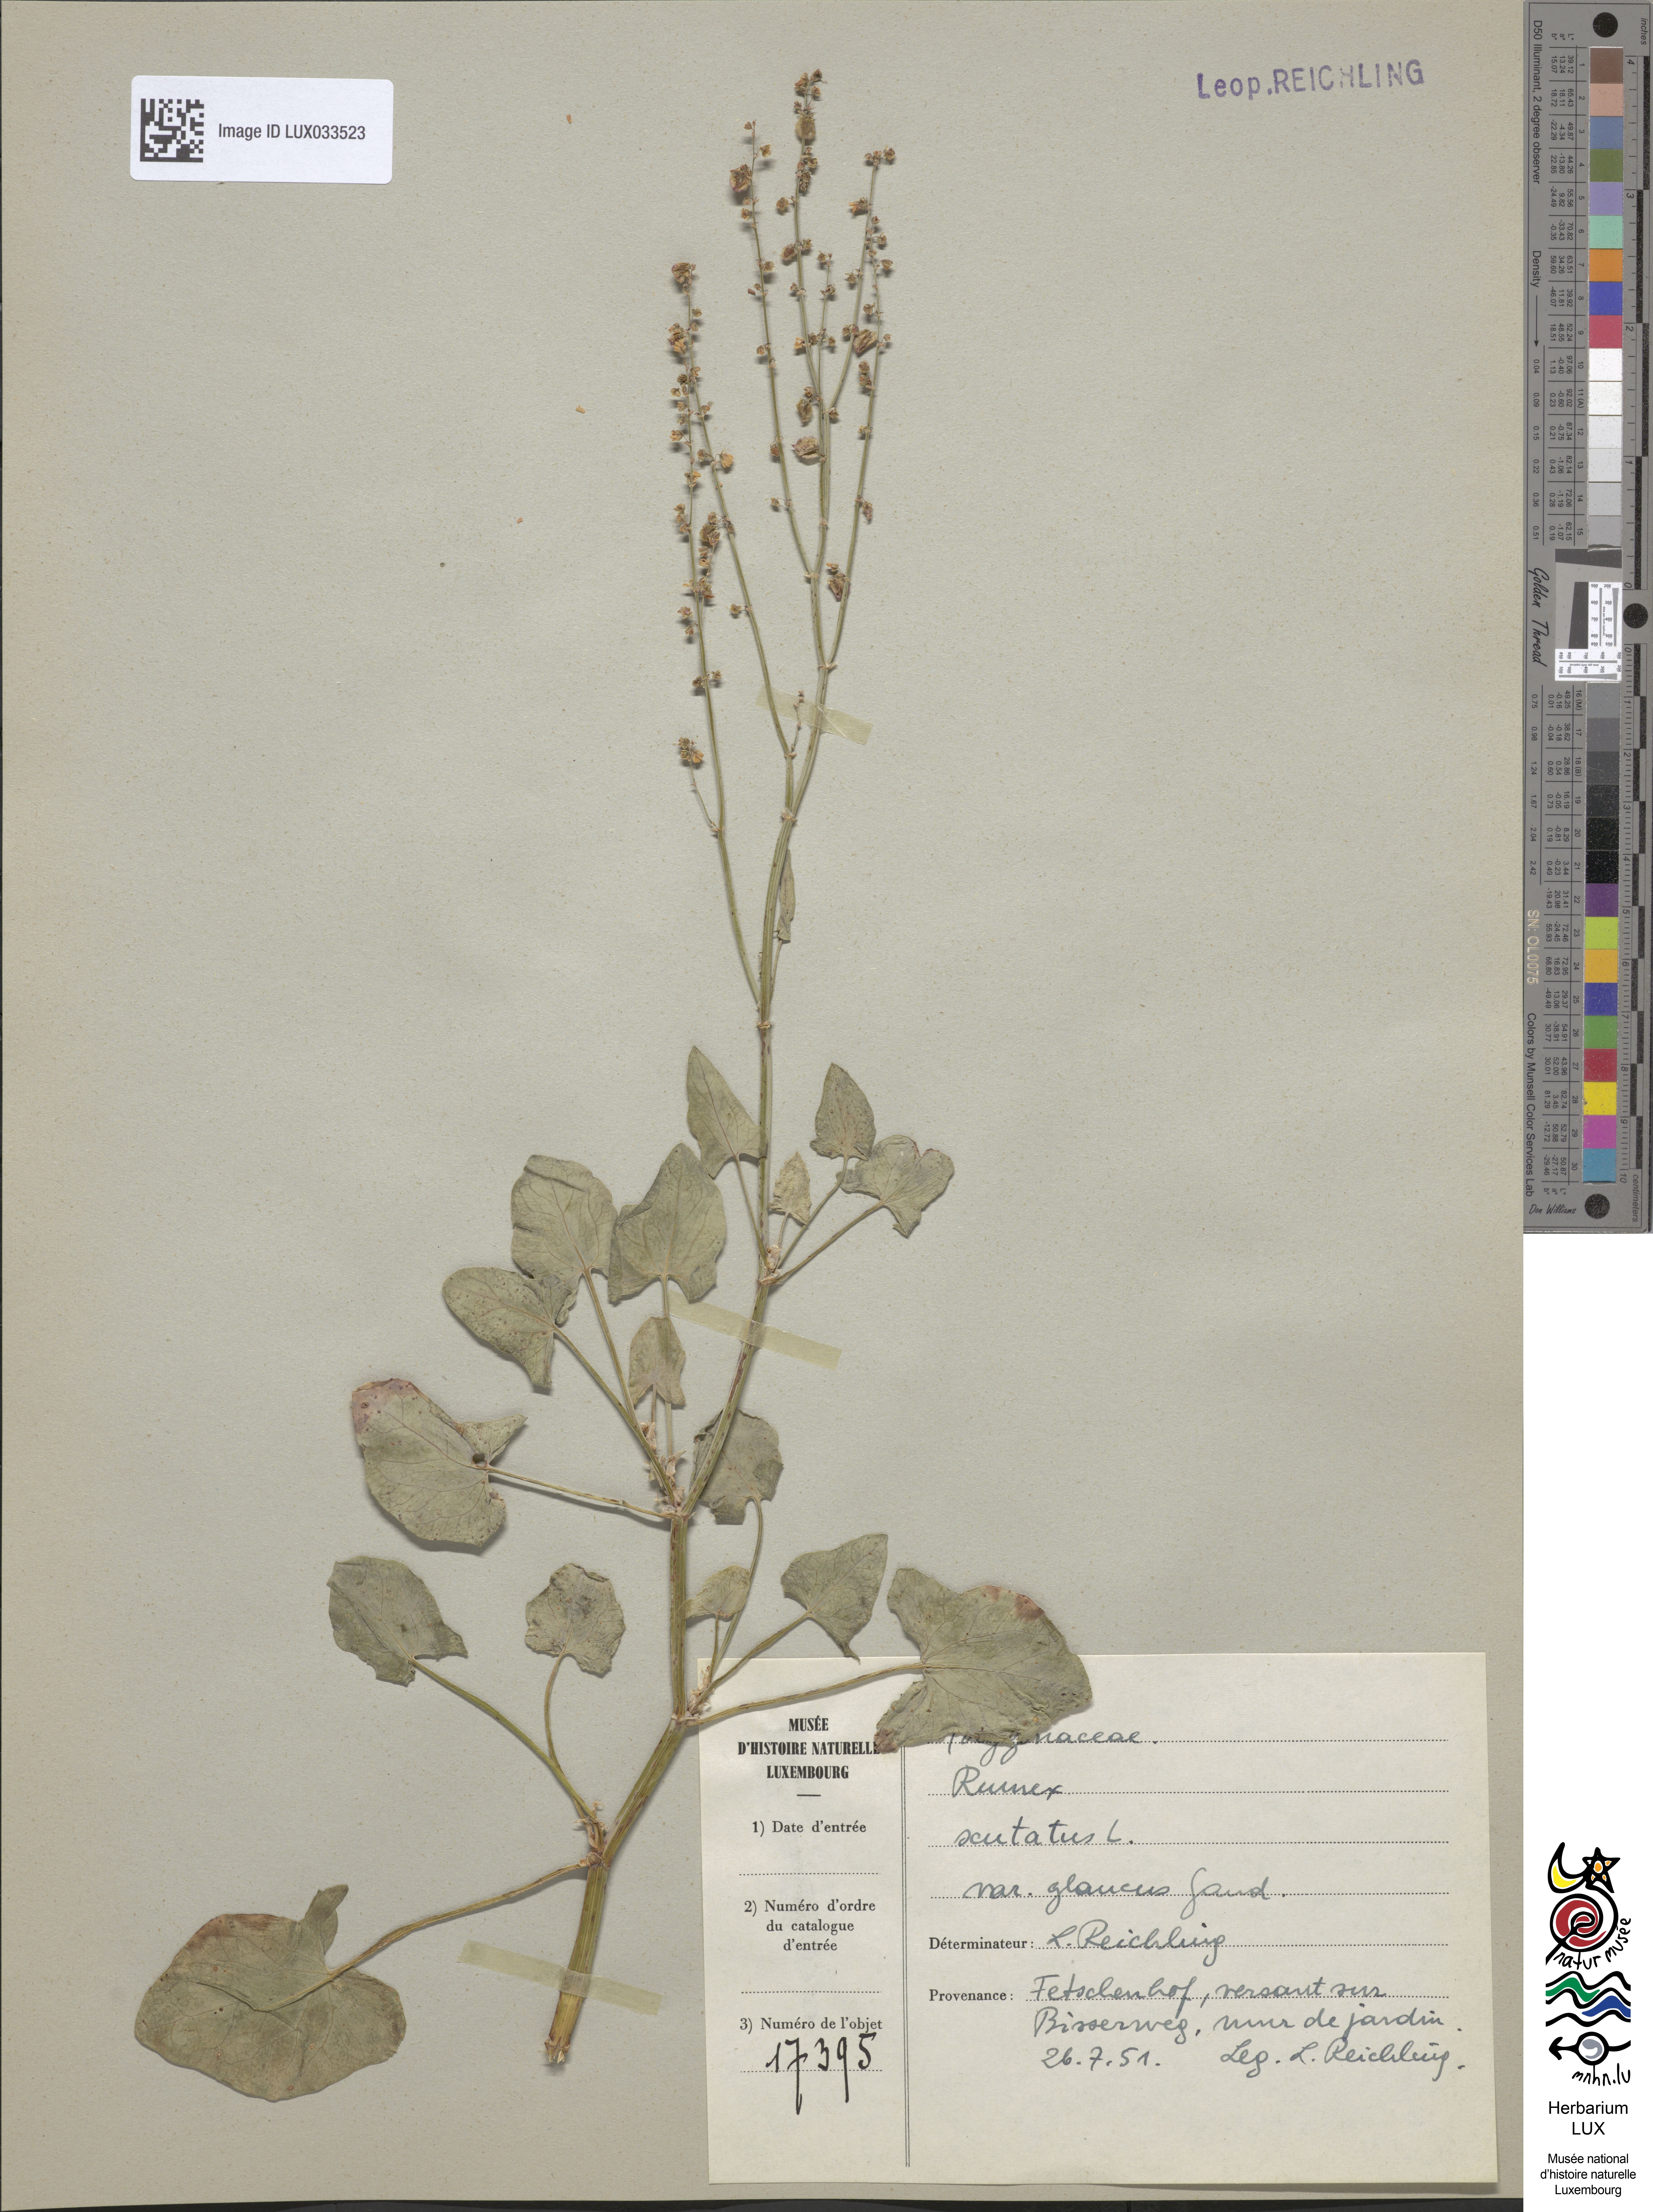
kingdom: Plantae
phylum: Tracheophyta
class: Magnoliopsida
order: Caryophyllales
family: Polygonaceae
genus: Rumex
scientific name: Rumex scutatus
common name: French sorrel
